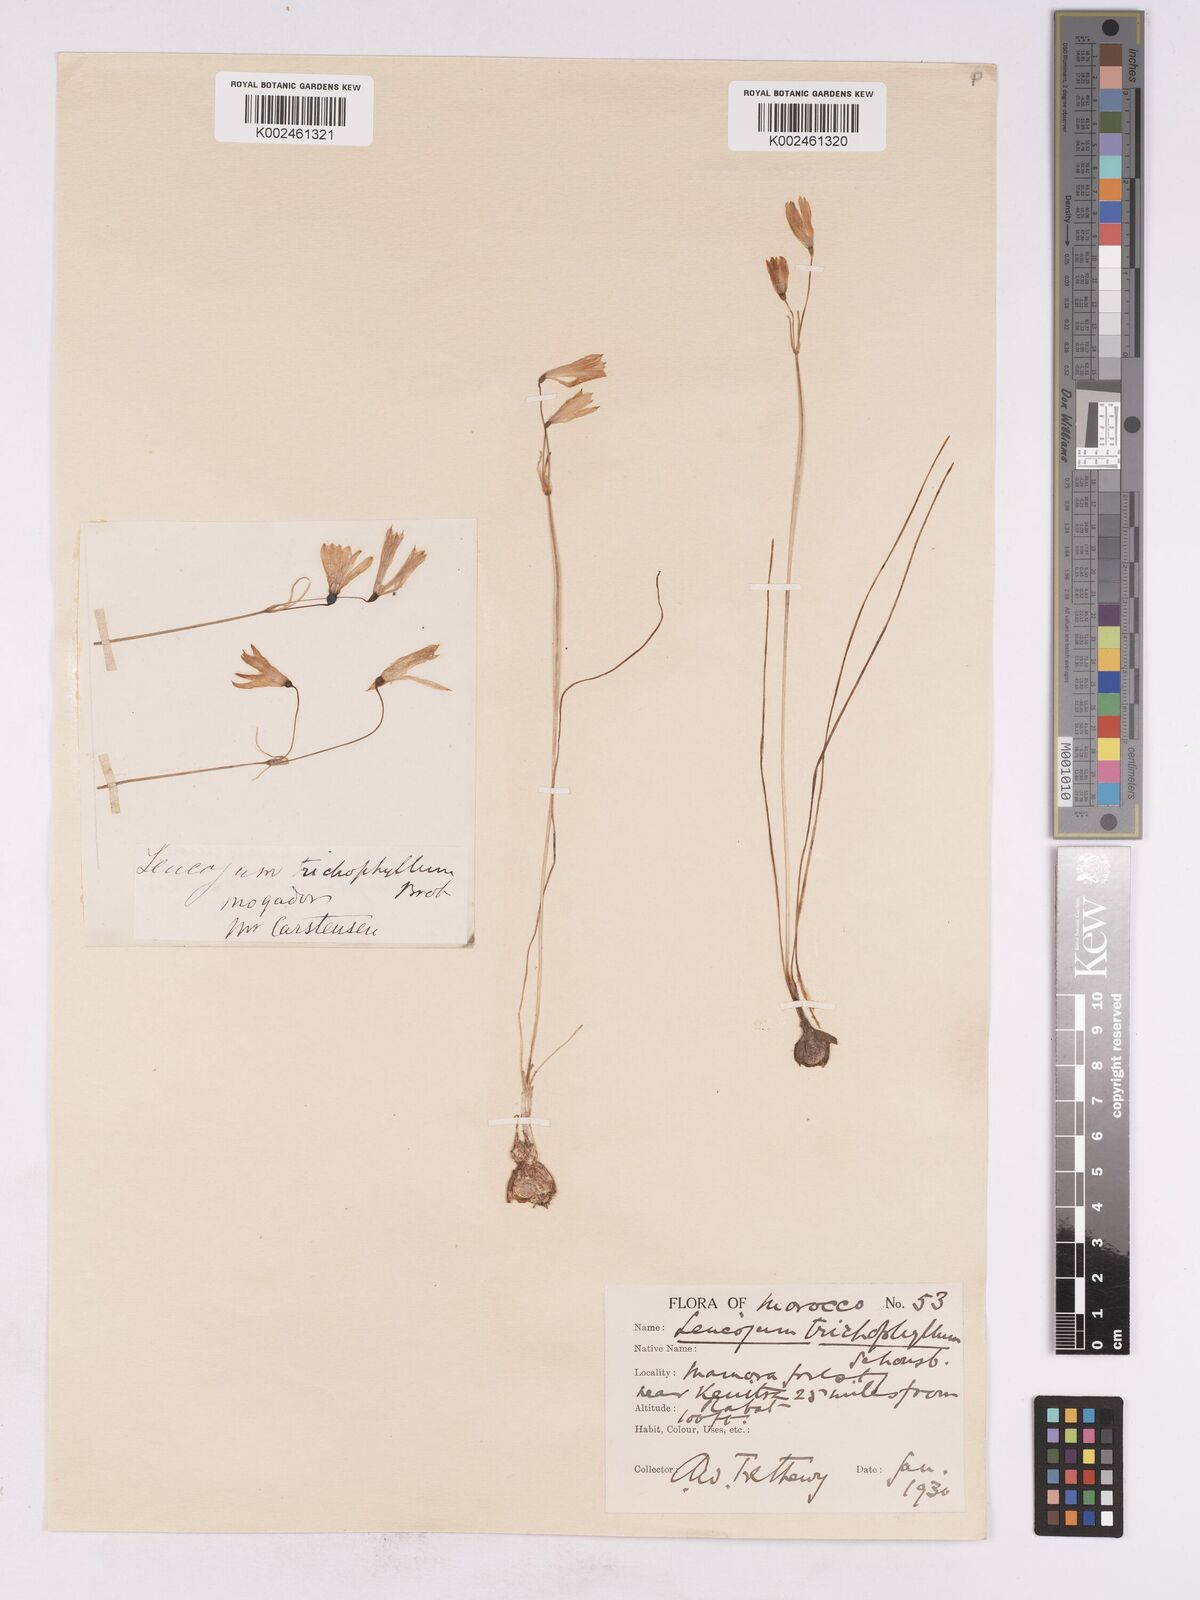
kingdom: Plantae
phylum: Tracheophyta
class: Liliopsida
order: Asparagales
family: Amaryllidaceae
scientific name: Amaryllidaceae
